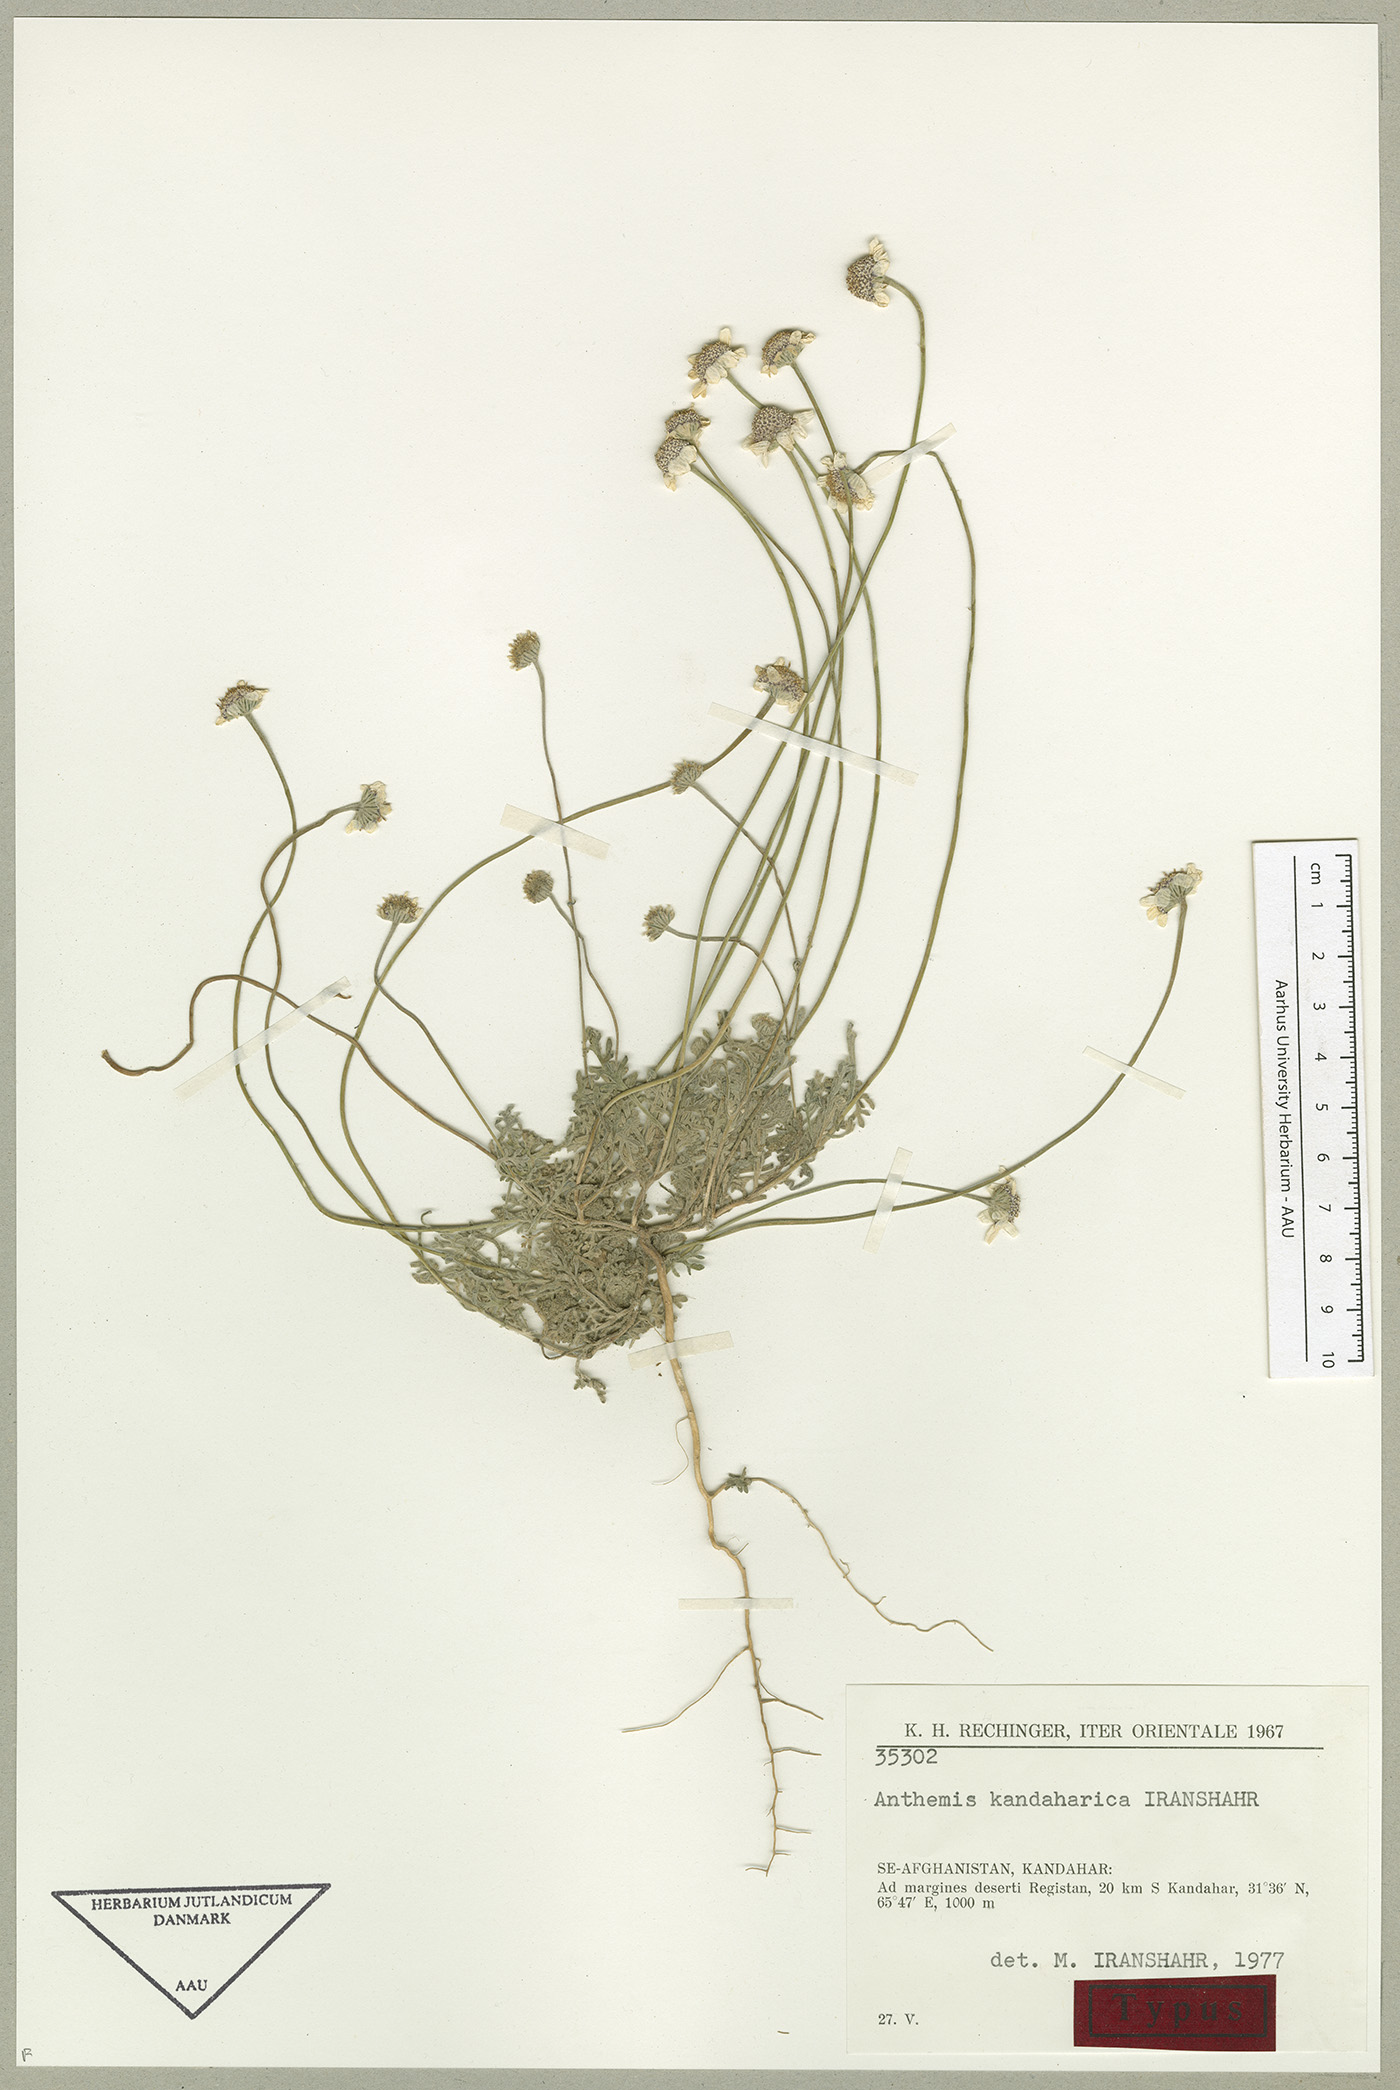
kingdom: Plantae
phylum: Tracheophyta
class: Magnoliopsida
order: Asterales
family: Asteraceae
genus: Anthemis
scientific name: Anthemis kandaharica
